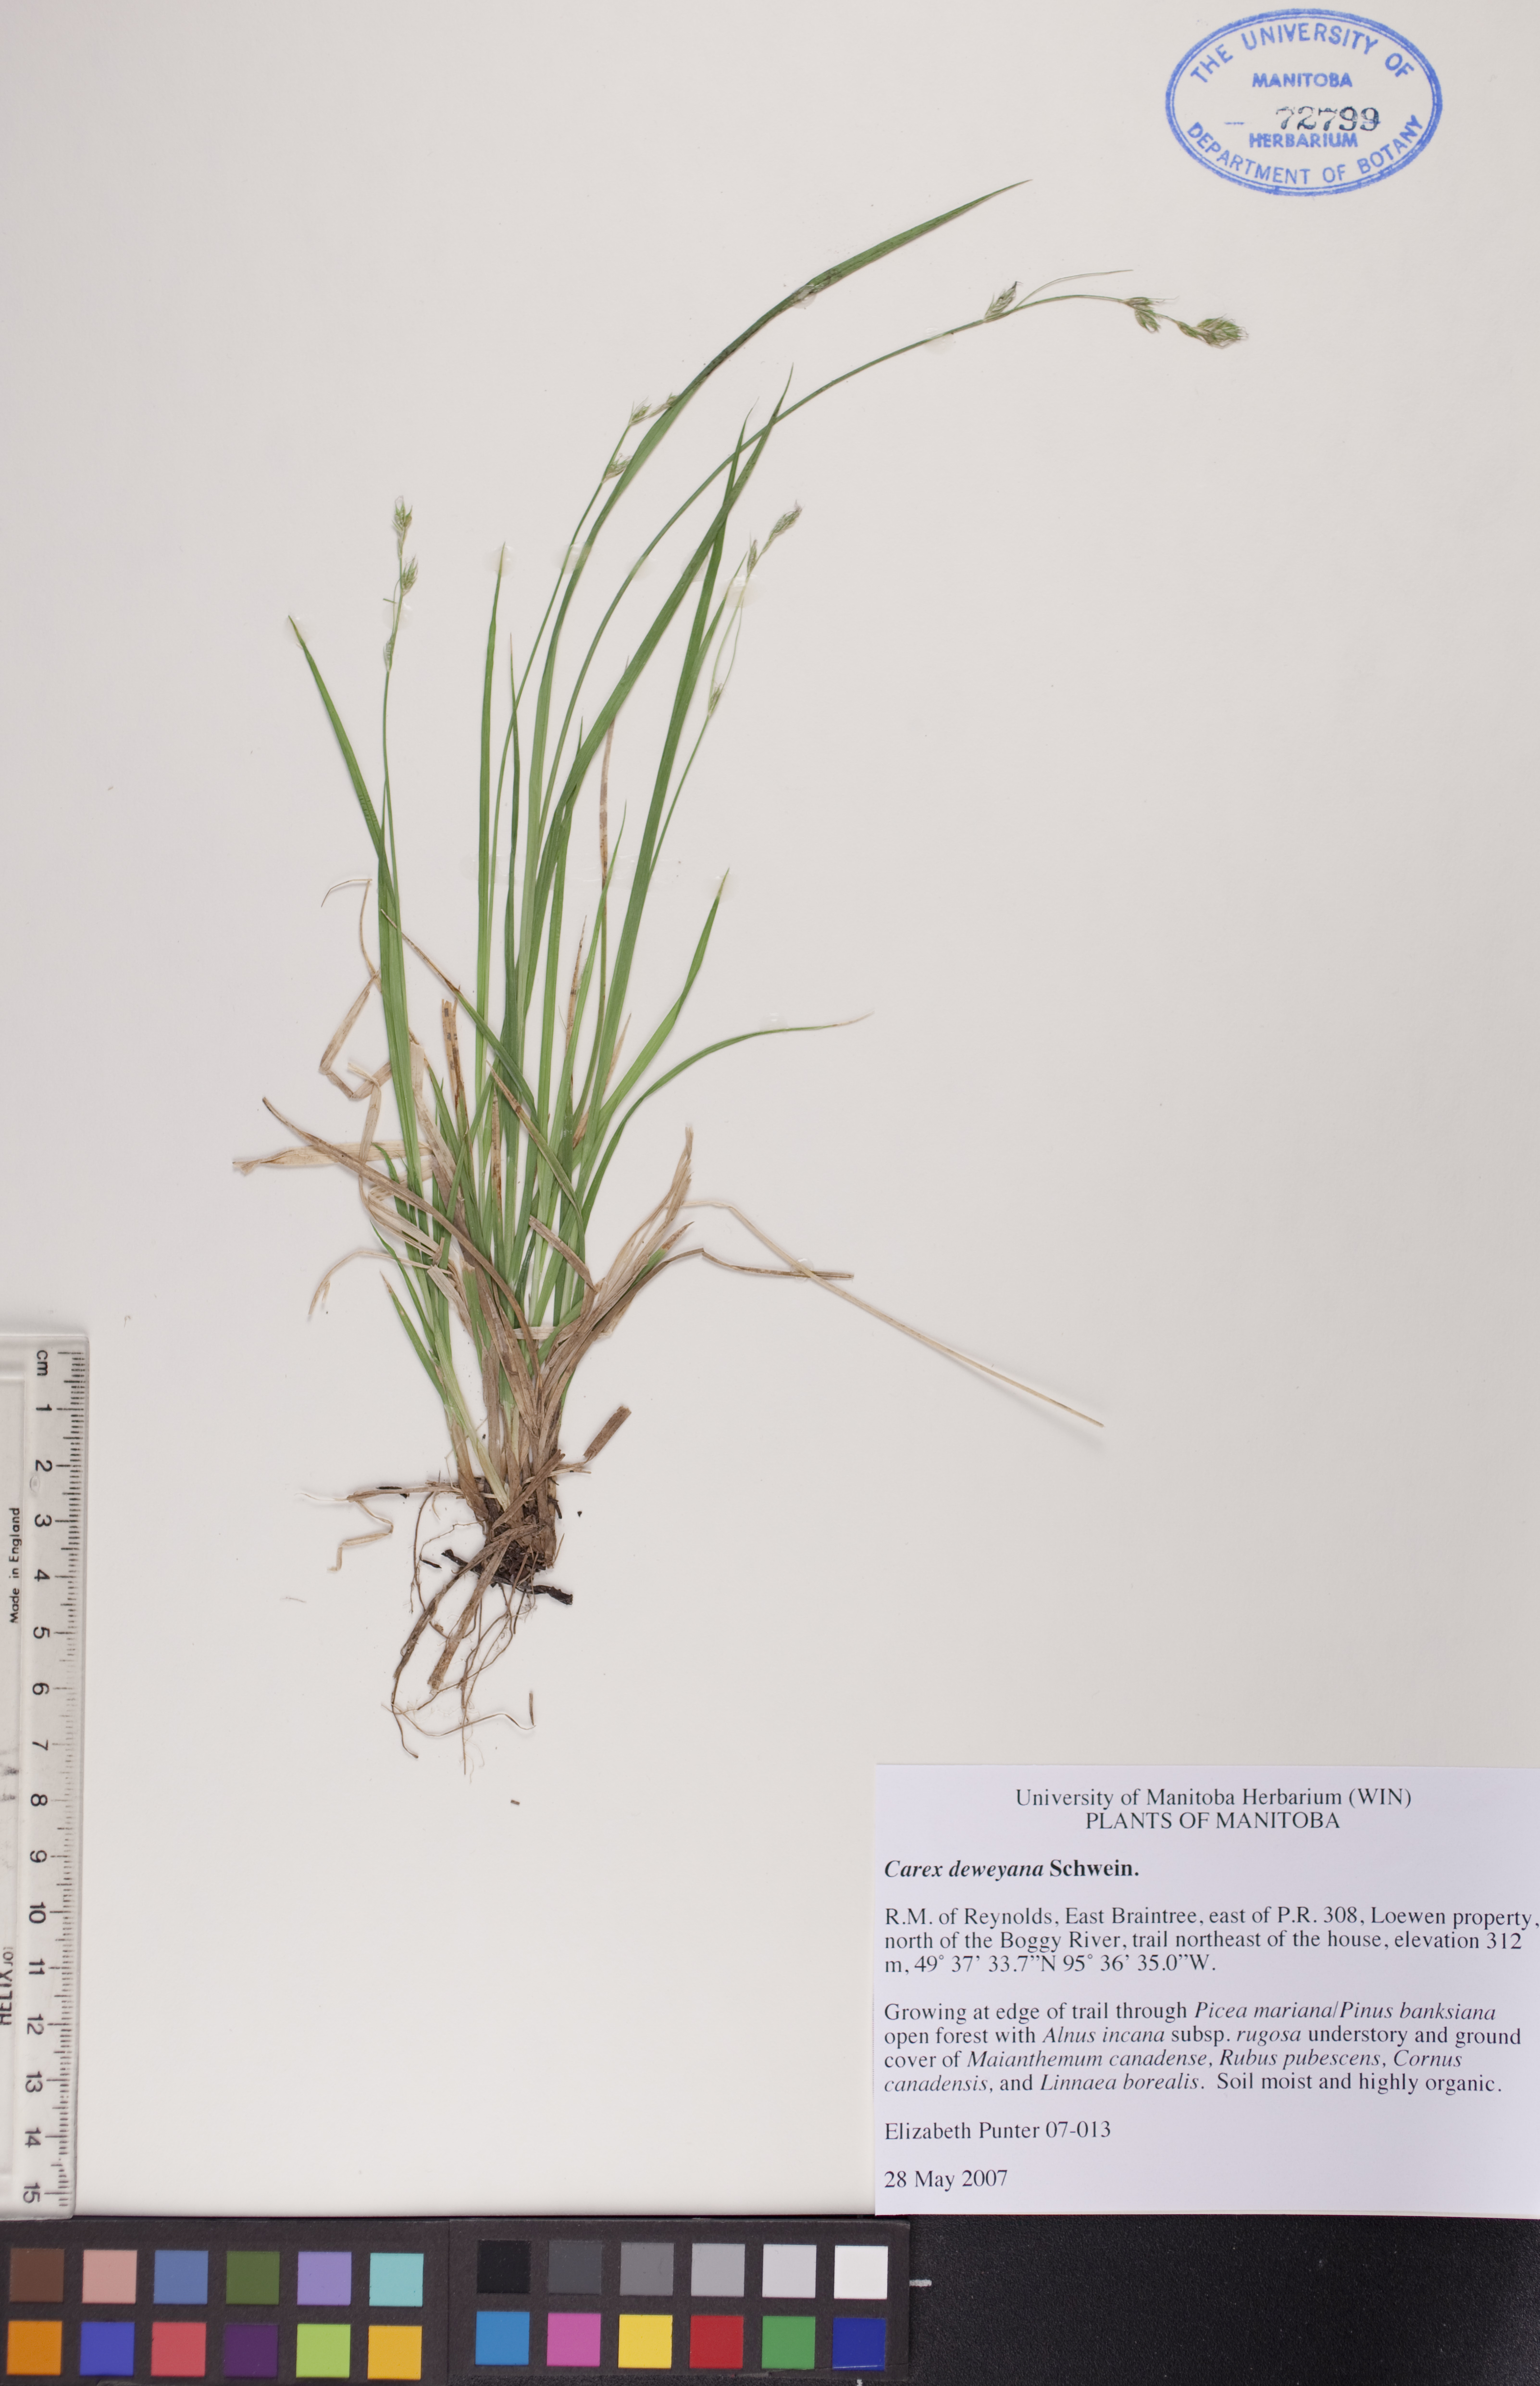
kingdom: Plantae
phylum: Tracheophyta
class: Liliopsida
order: Poales
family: Cyperaceae
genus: Carex
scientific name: Carex deweyana
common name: Dewey's sedge
